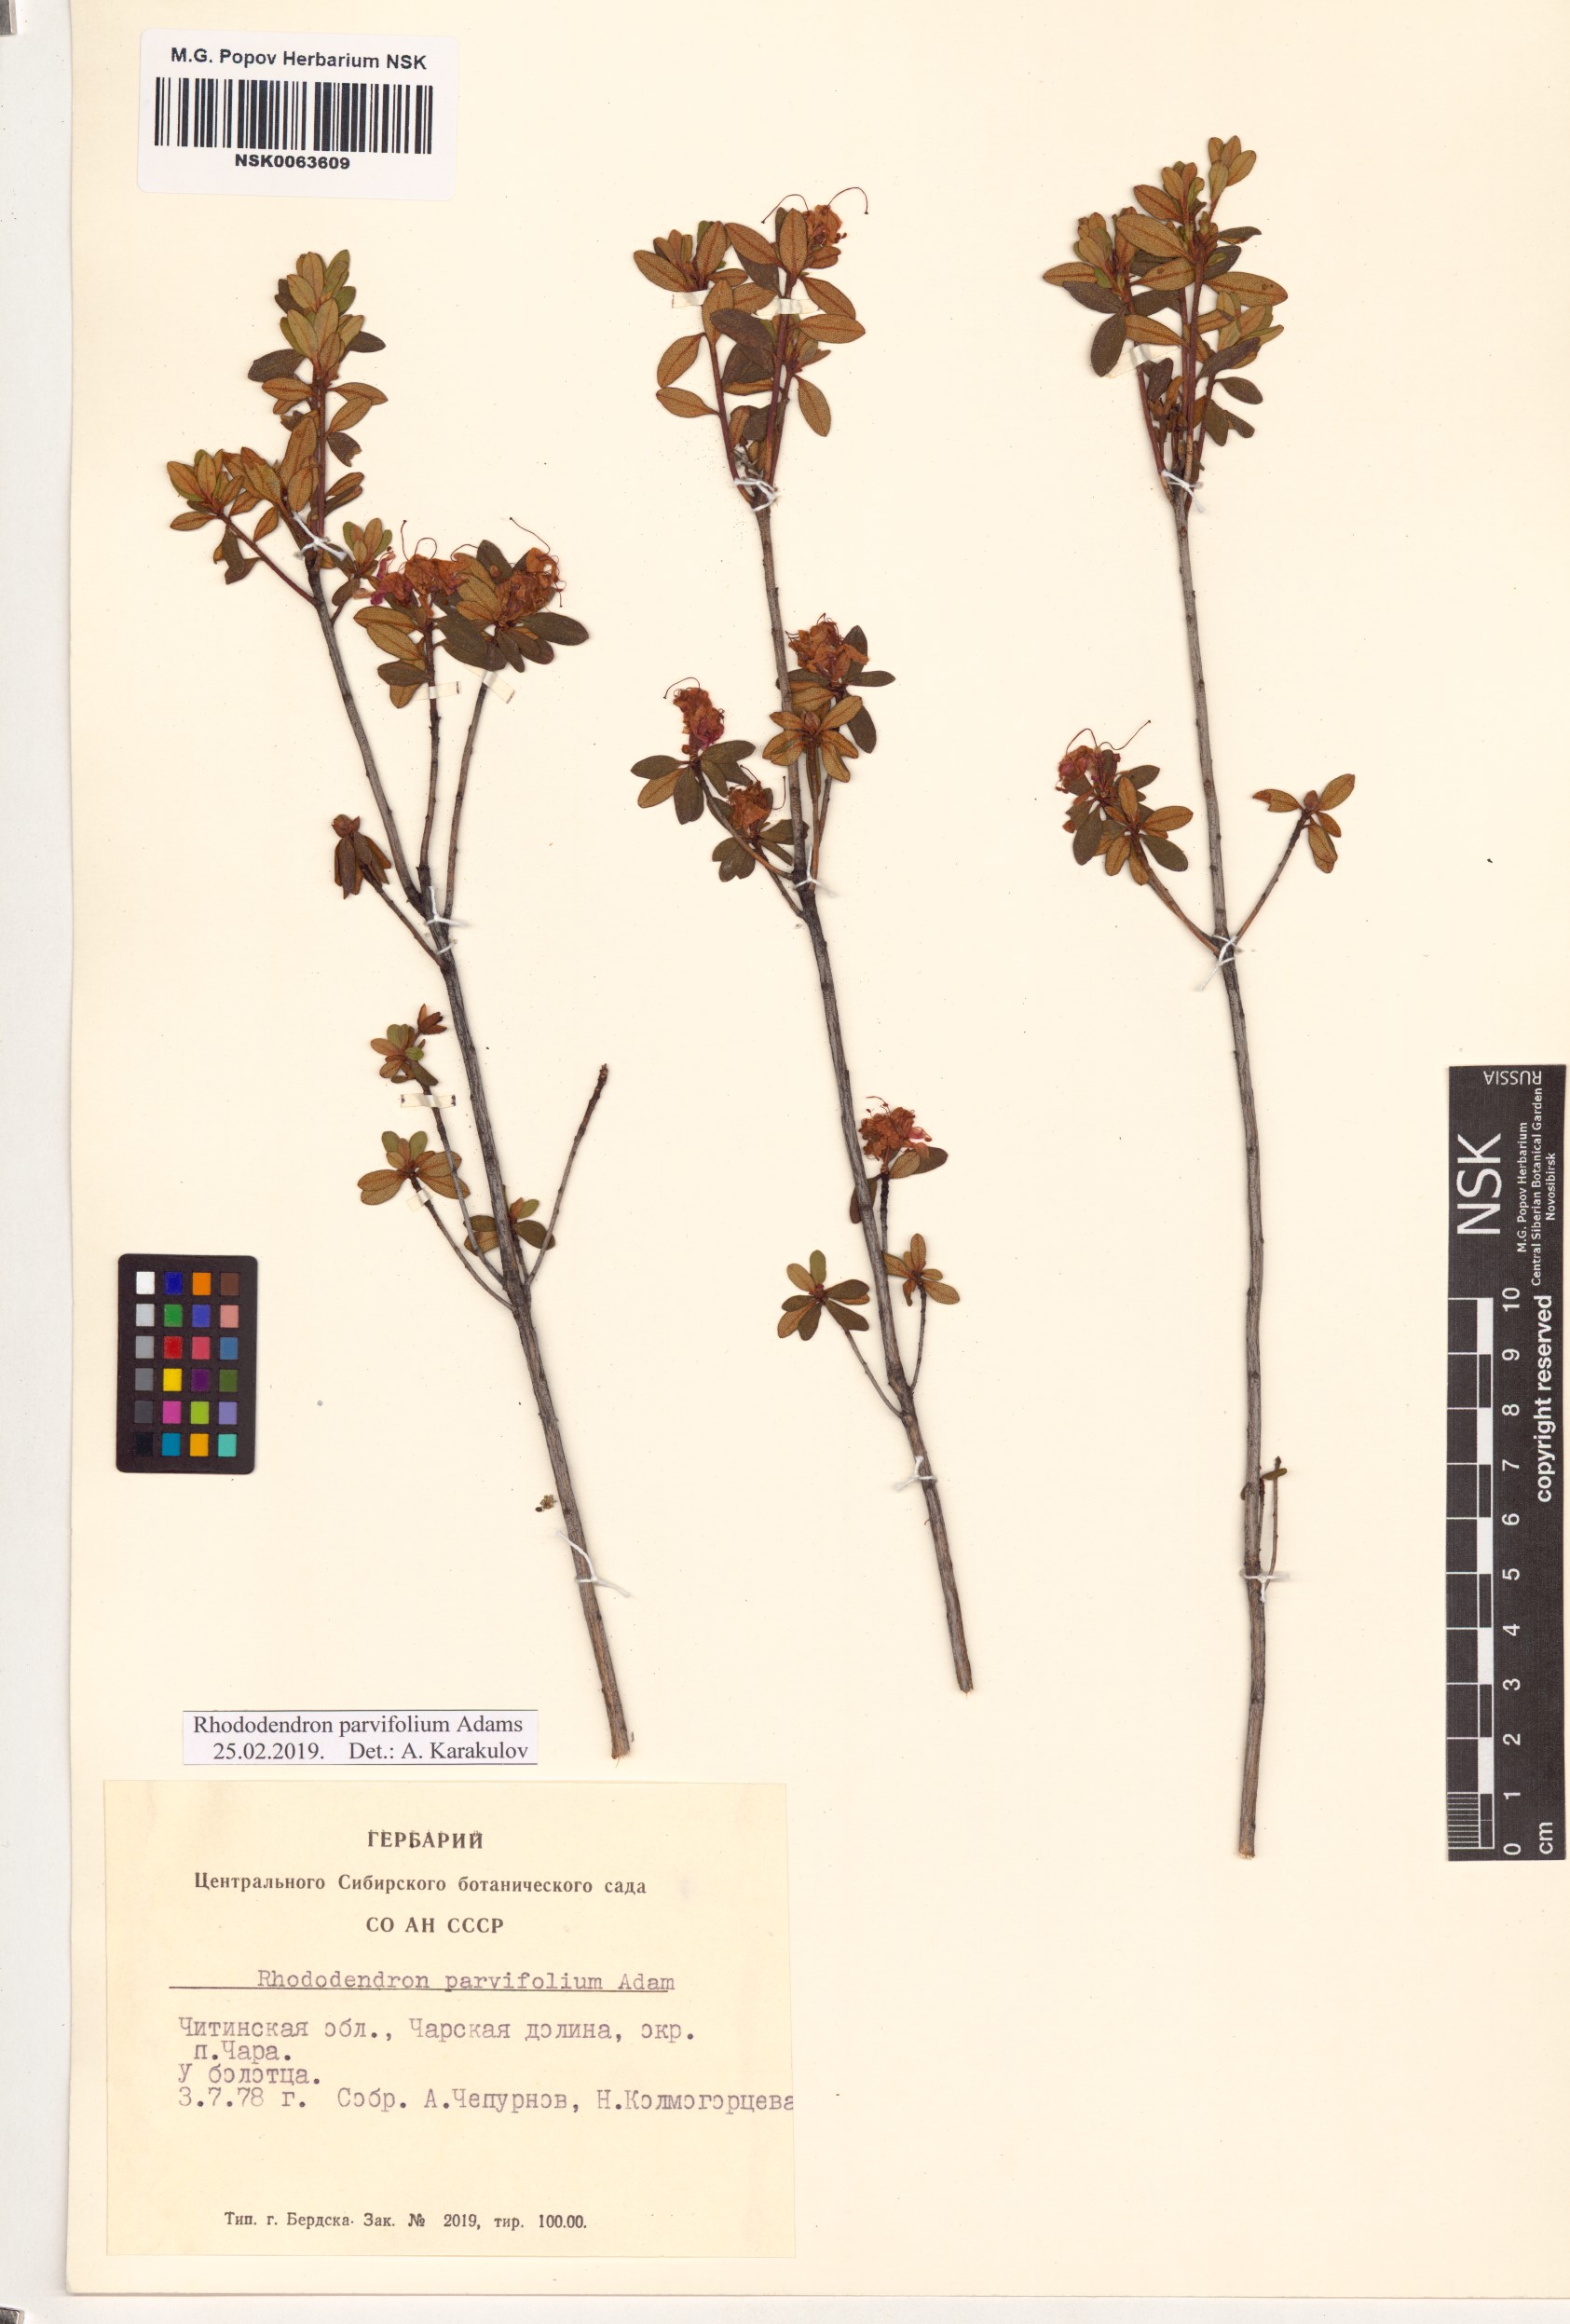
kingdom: Plantae
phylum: Tracheophyta
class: Magnoliopsida
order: Ericales
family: Ericaceae
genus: Rhododendron
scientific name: Rhododendron parvifolium
